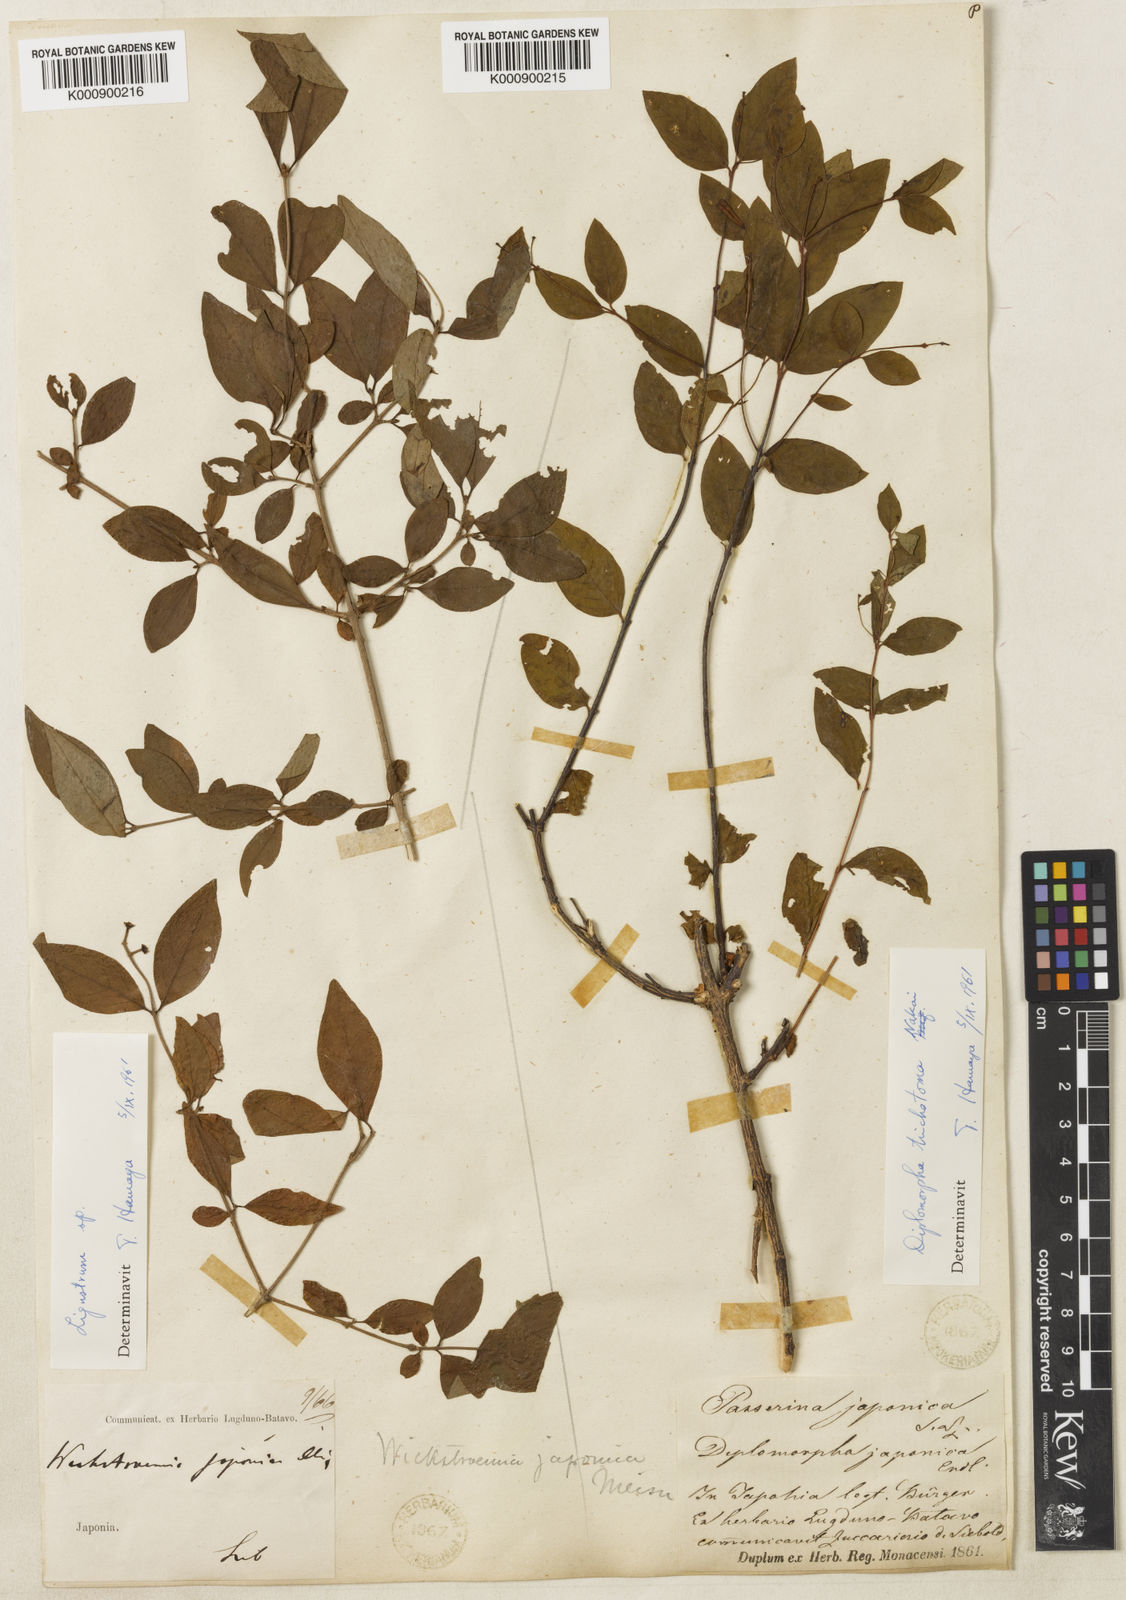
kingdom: Plantae
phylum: Tracheophyta
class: Magnoliopsida
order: Malvales
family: Thymelaeaceae
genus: Wikstroemia
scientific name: Wikstroemia trichotoma
